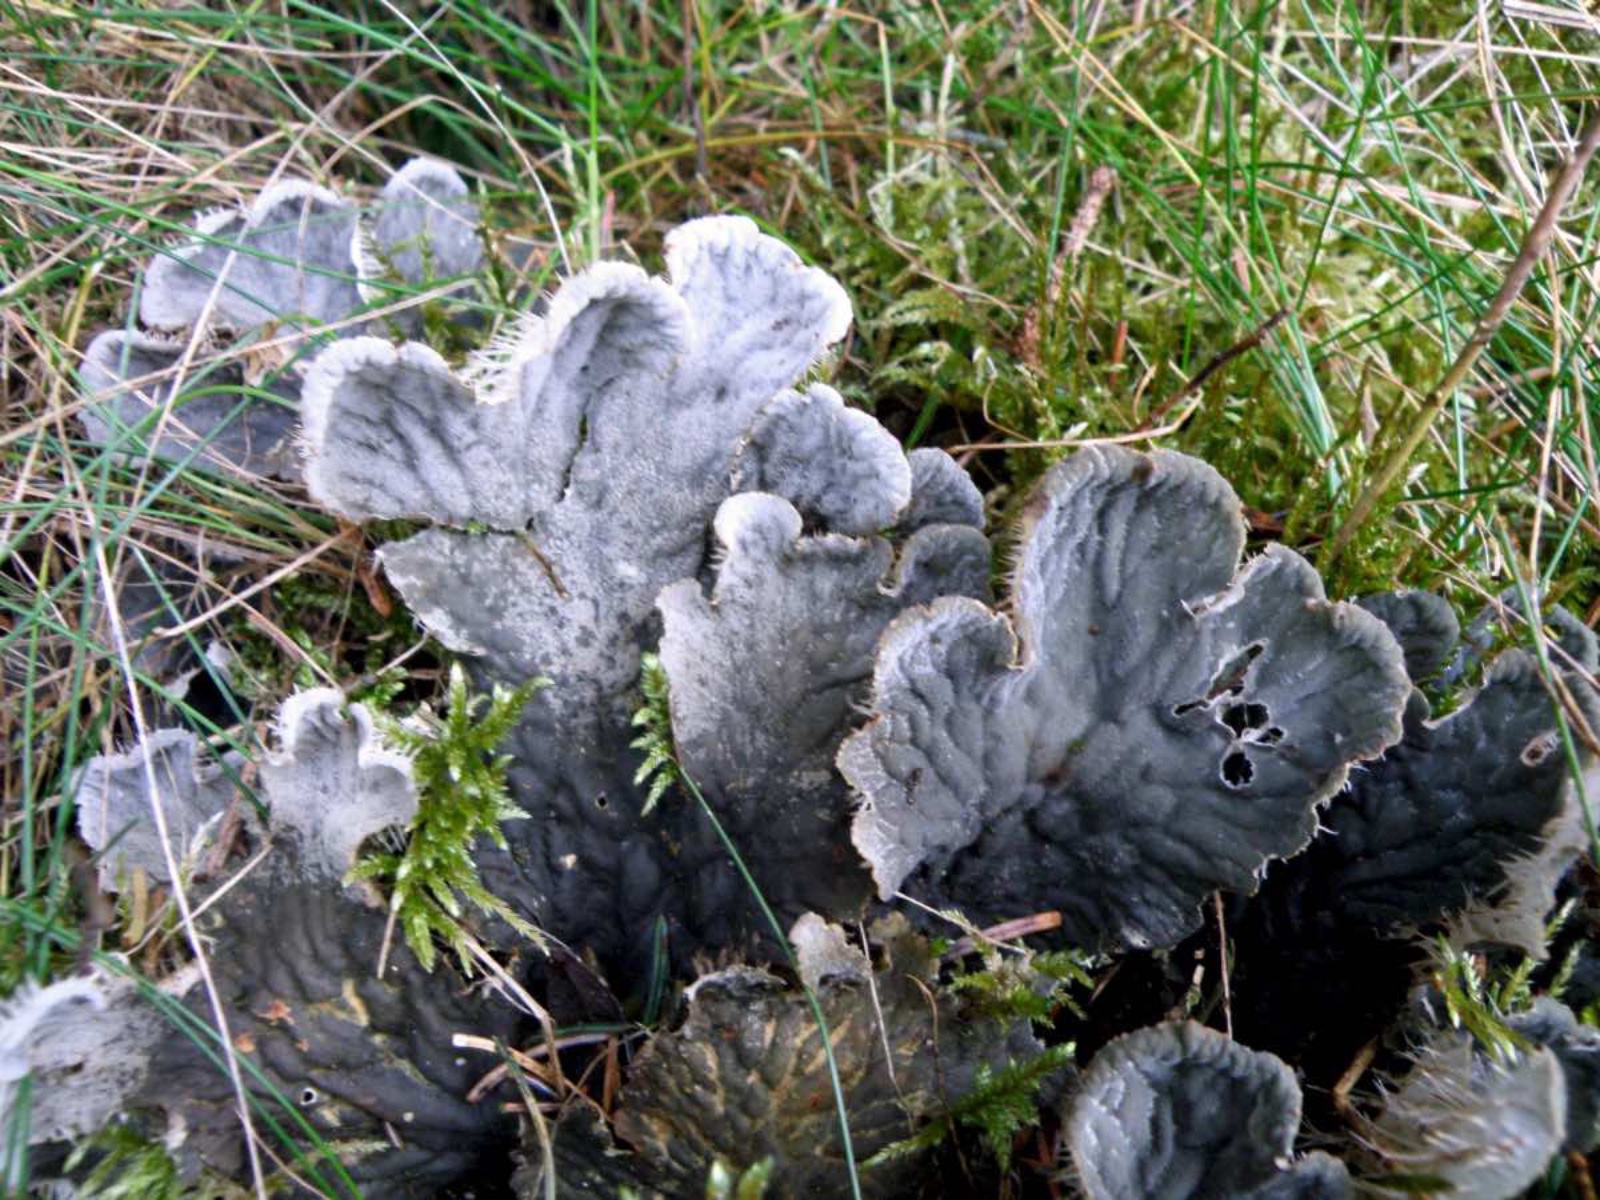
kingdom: Fungi
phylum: Ascomycota
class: Lecanoromycetes
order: Peltigerales
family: Peltigeraceae
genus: Peltigera
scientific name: Peltigera membranacea
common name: tynd skjoldlav
